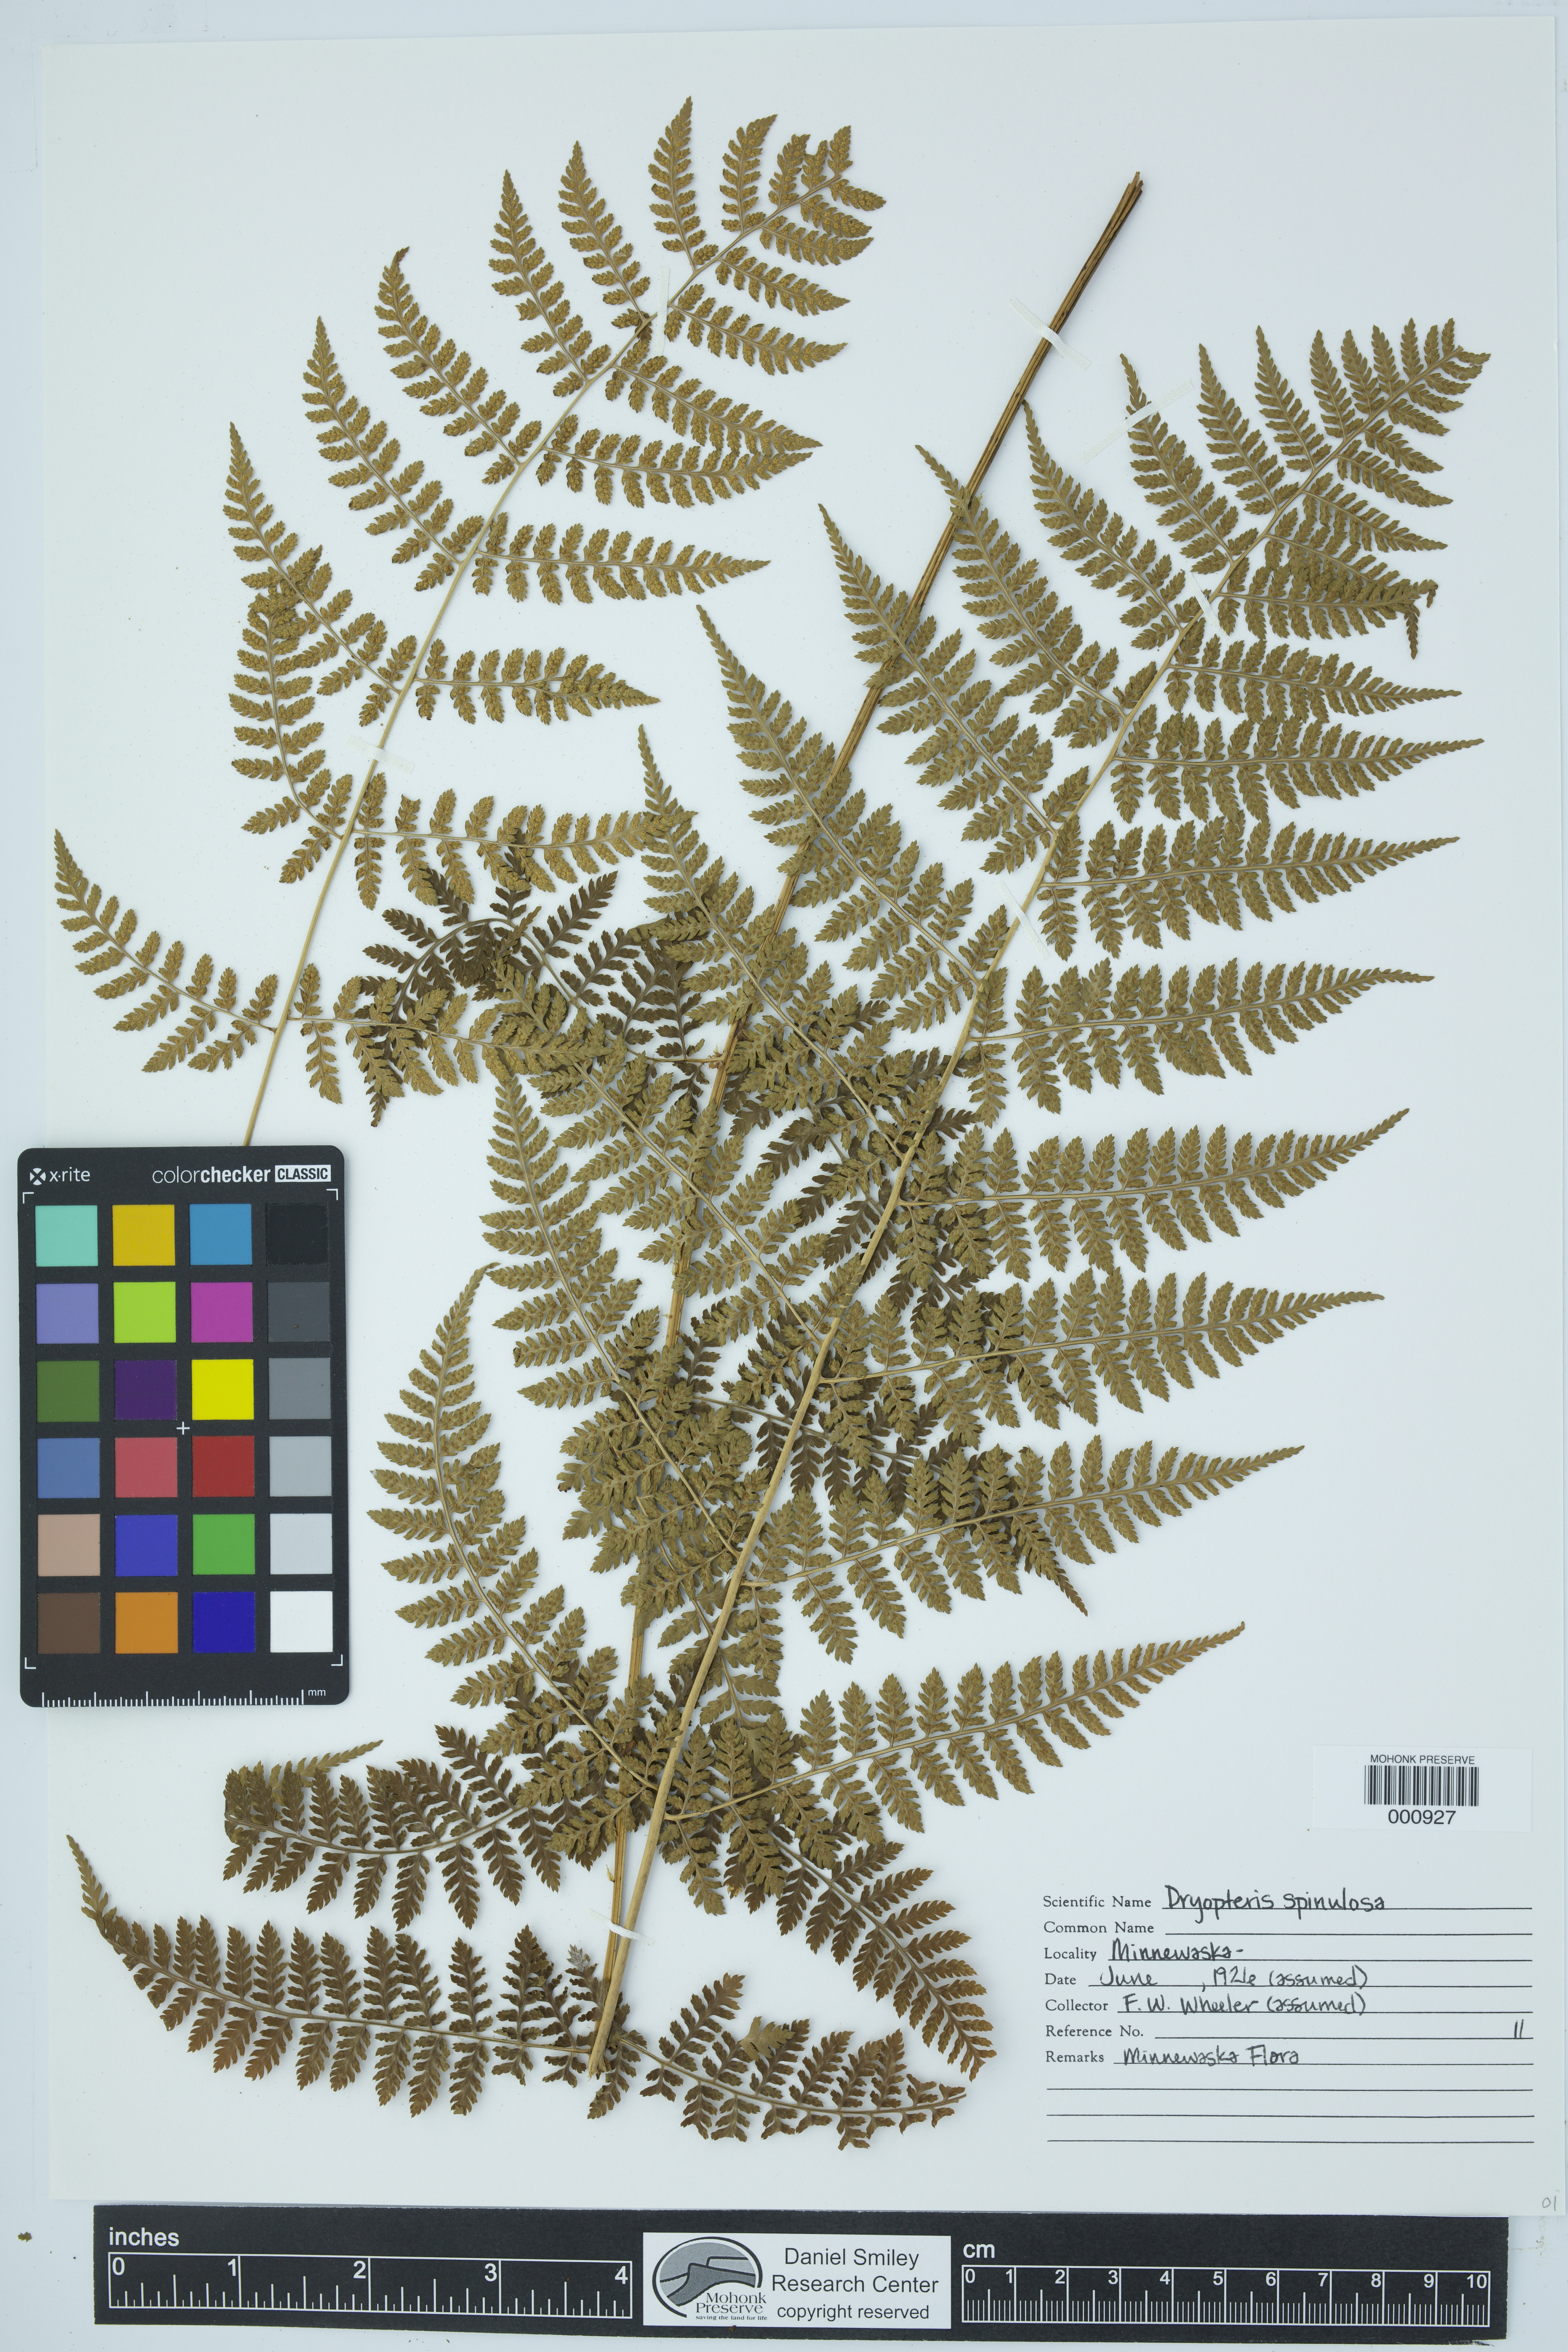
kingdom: Plantae
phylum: Tracheophyta
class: Polypodiopsida
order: Polypodiales
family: Dryopteridaceae
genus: Dryopteris
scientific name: Dryopteris carthusiana
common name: Narrow buckler-fern
